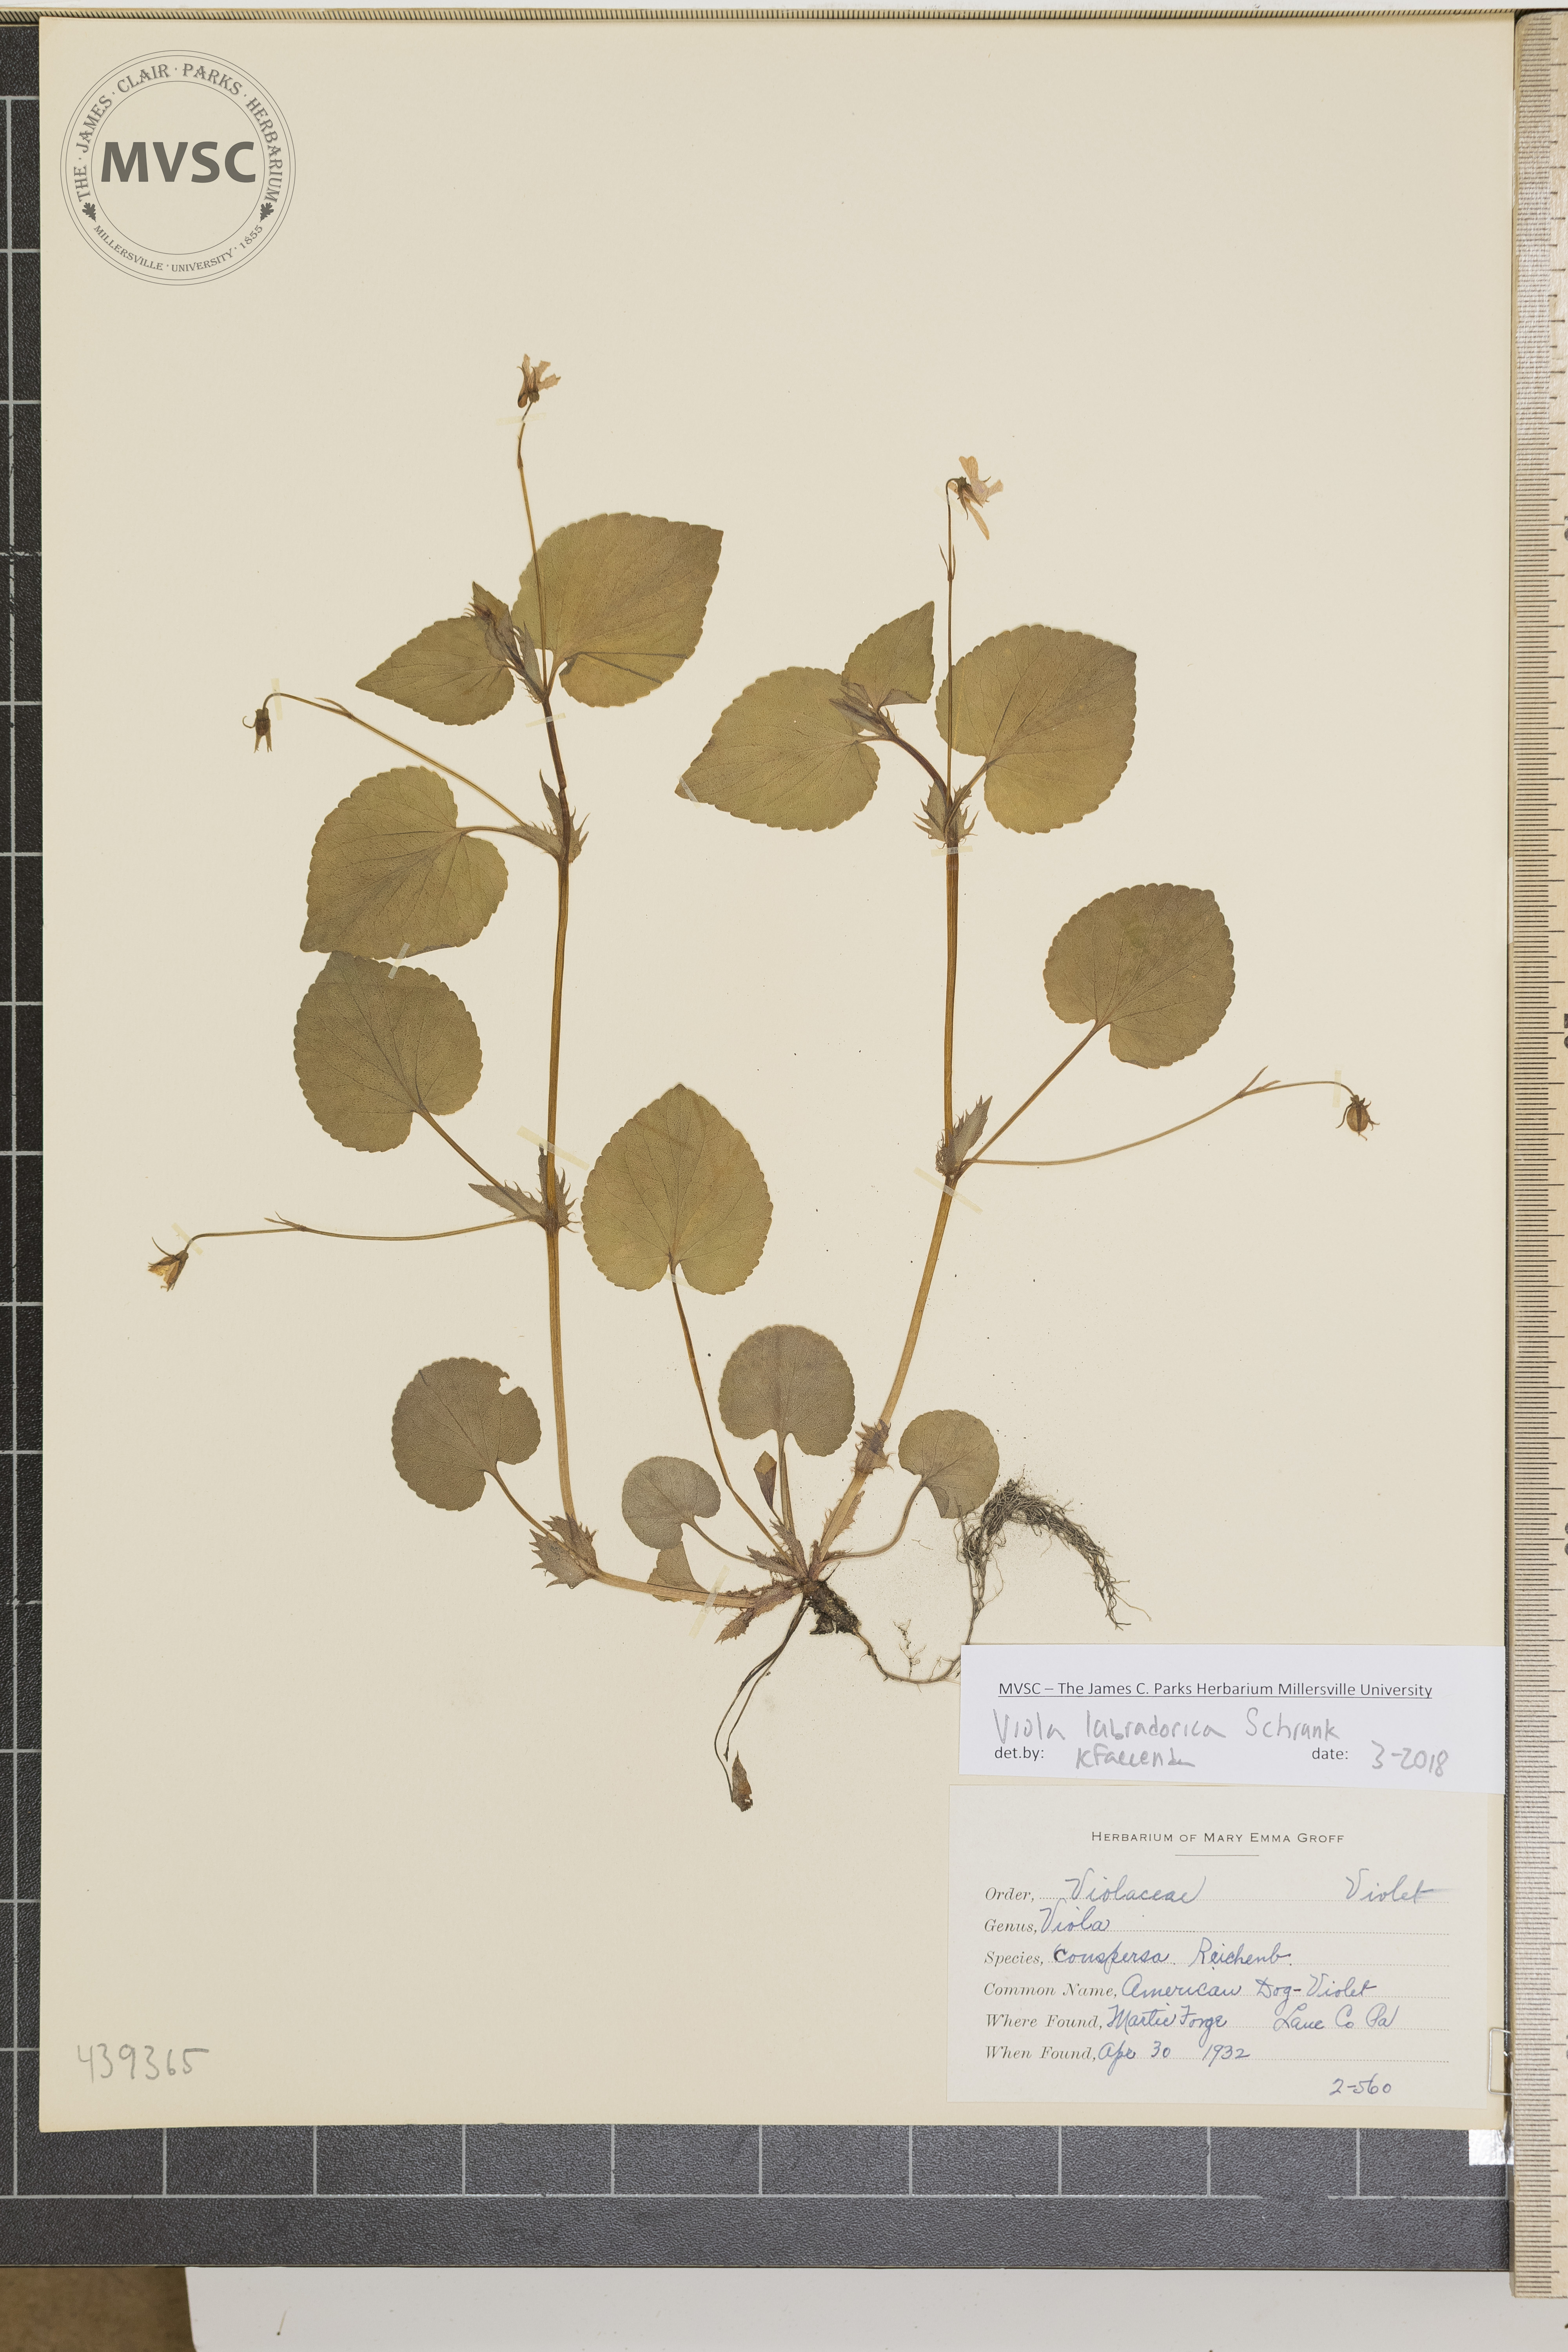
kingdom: Plantae
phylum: Tracheophyta
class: Magnoliopsida
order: Malpighiales
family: Violaceae
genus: Viola
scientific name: Viola labradorica
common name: American dog violet
